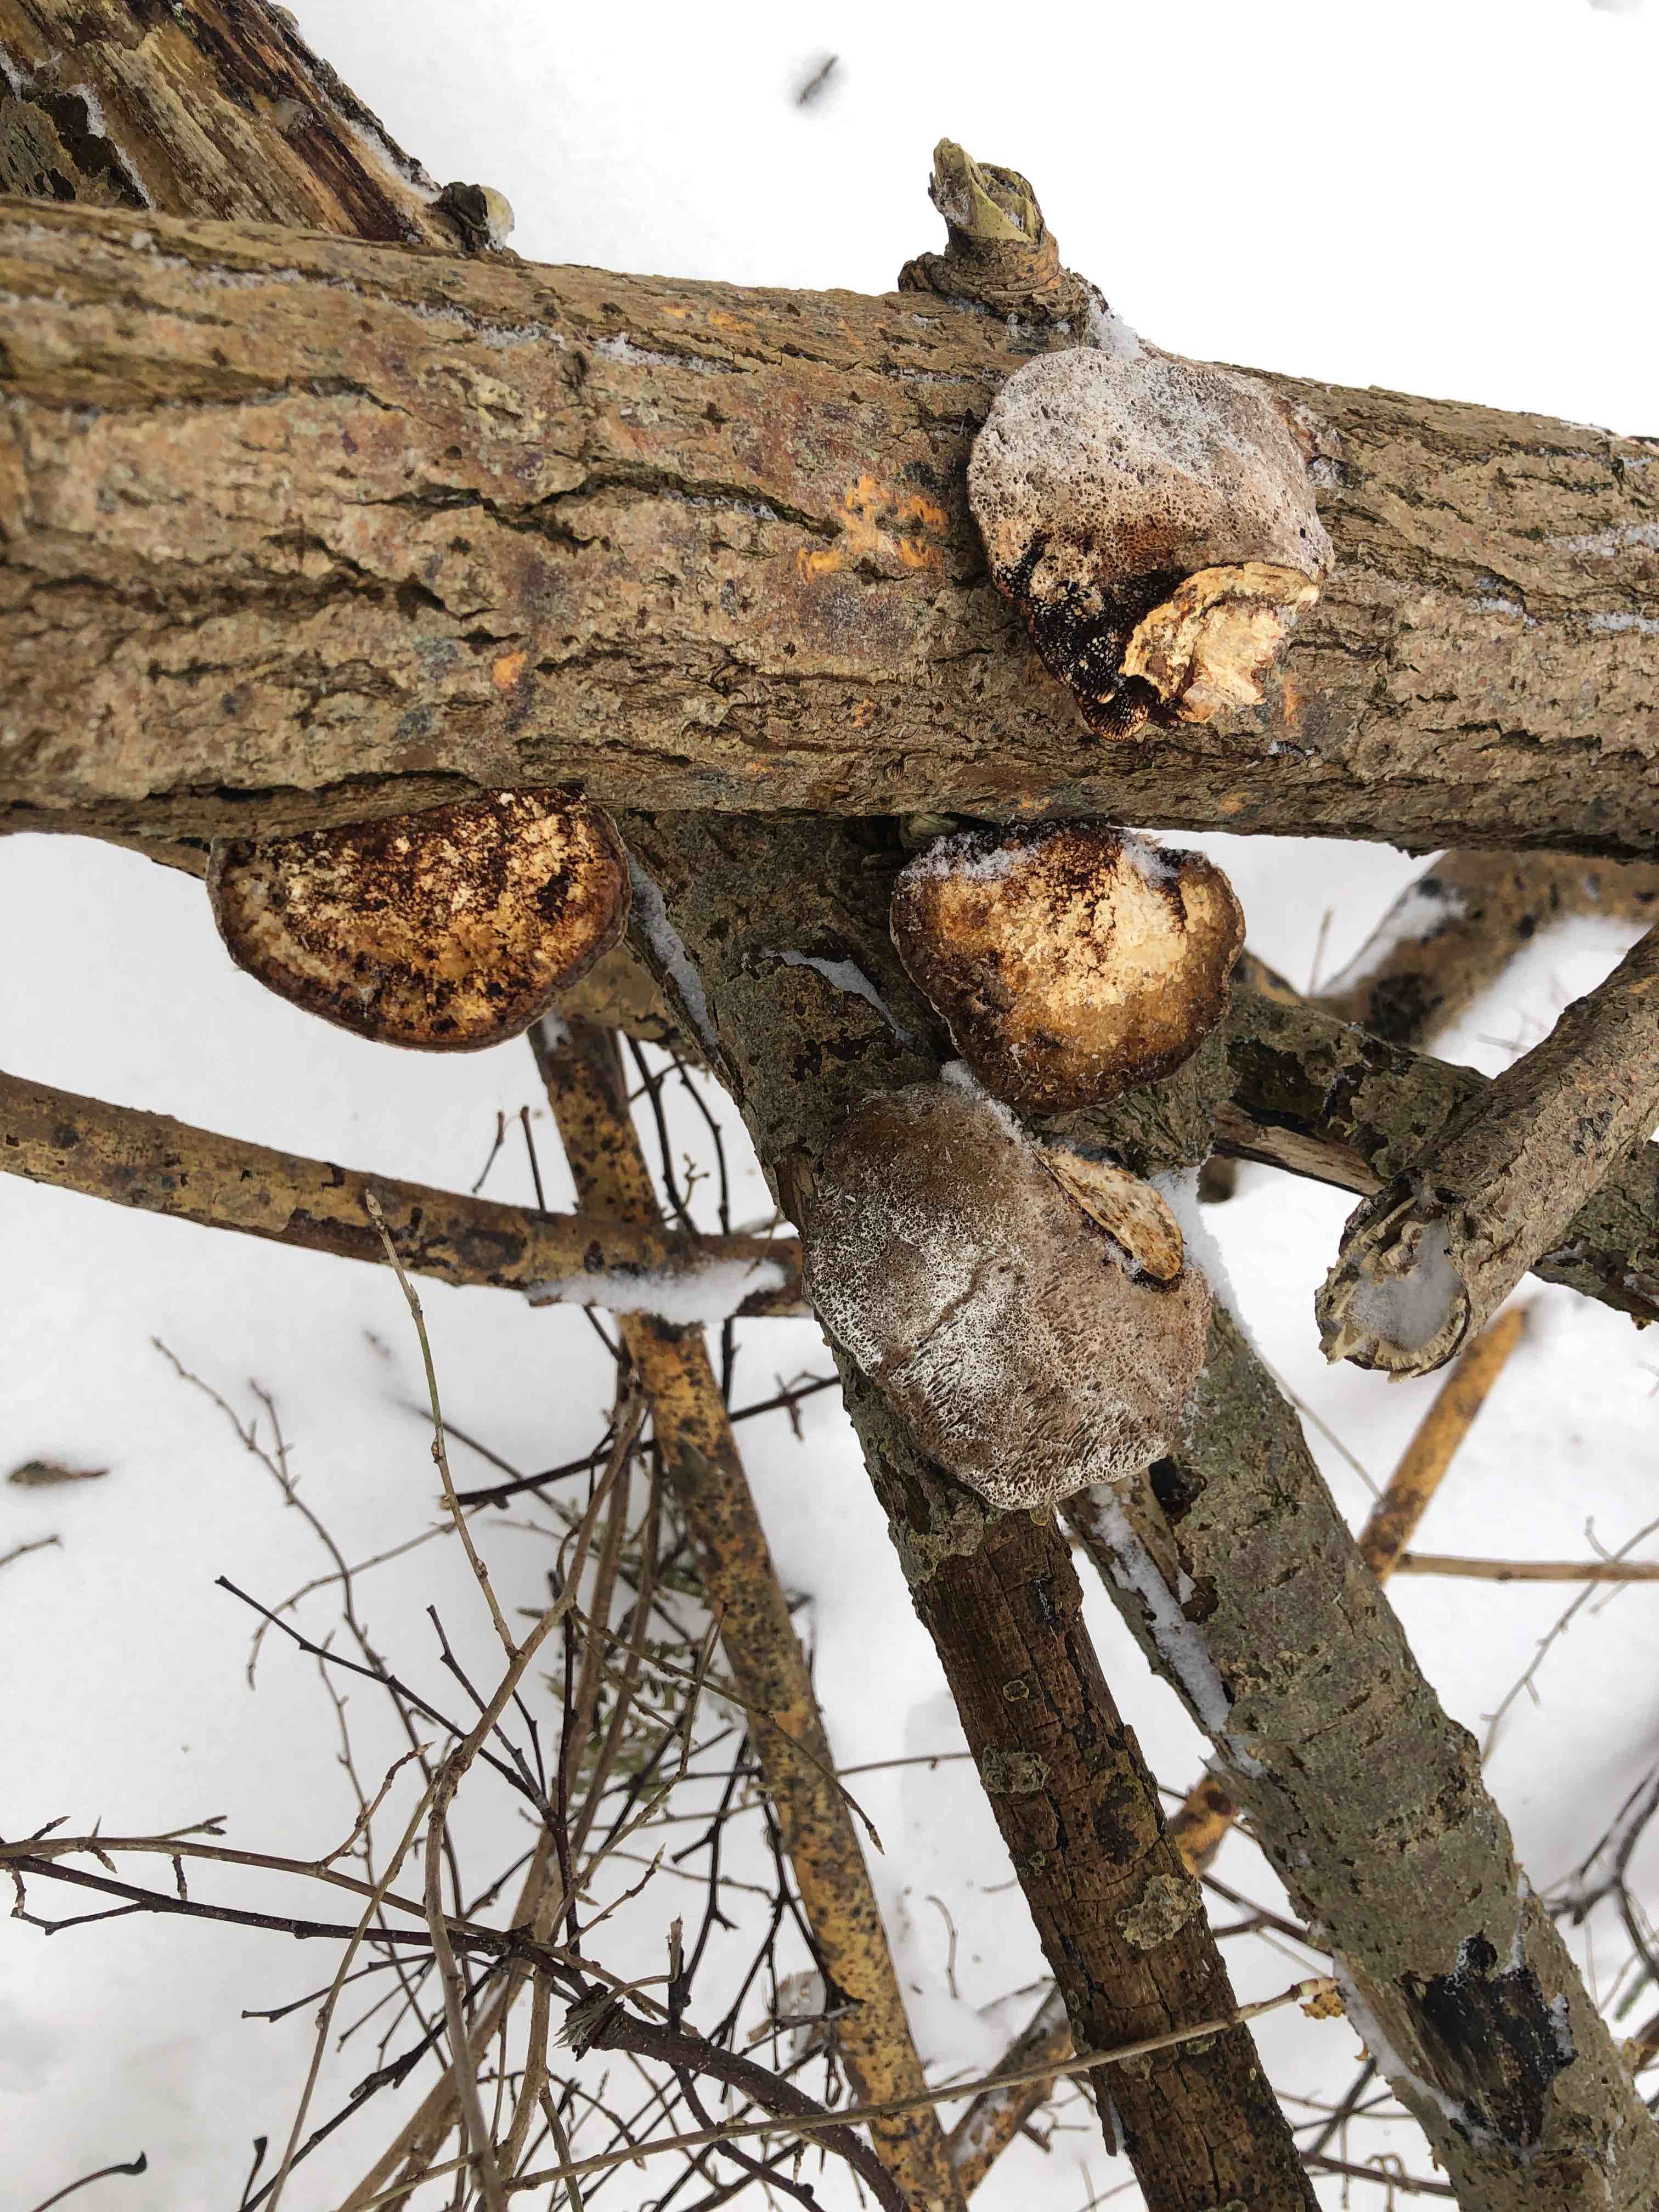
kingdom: Fungi
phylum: Basidiomycota
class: Agaricomycetes
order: Polyporales
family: Polyporaceae
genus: Daedaleopsis
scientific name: Daedaleopsis confragosa
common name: rødmende læderporesvamp
